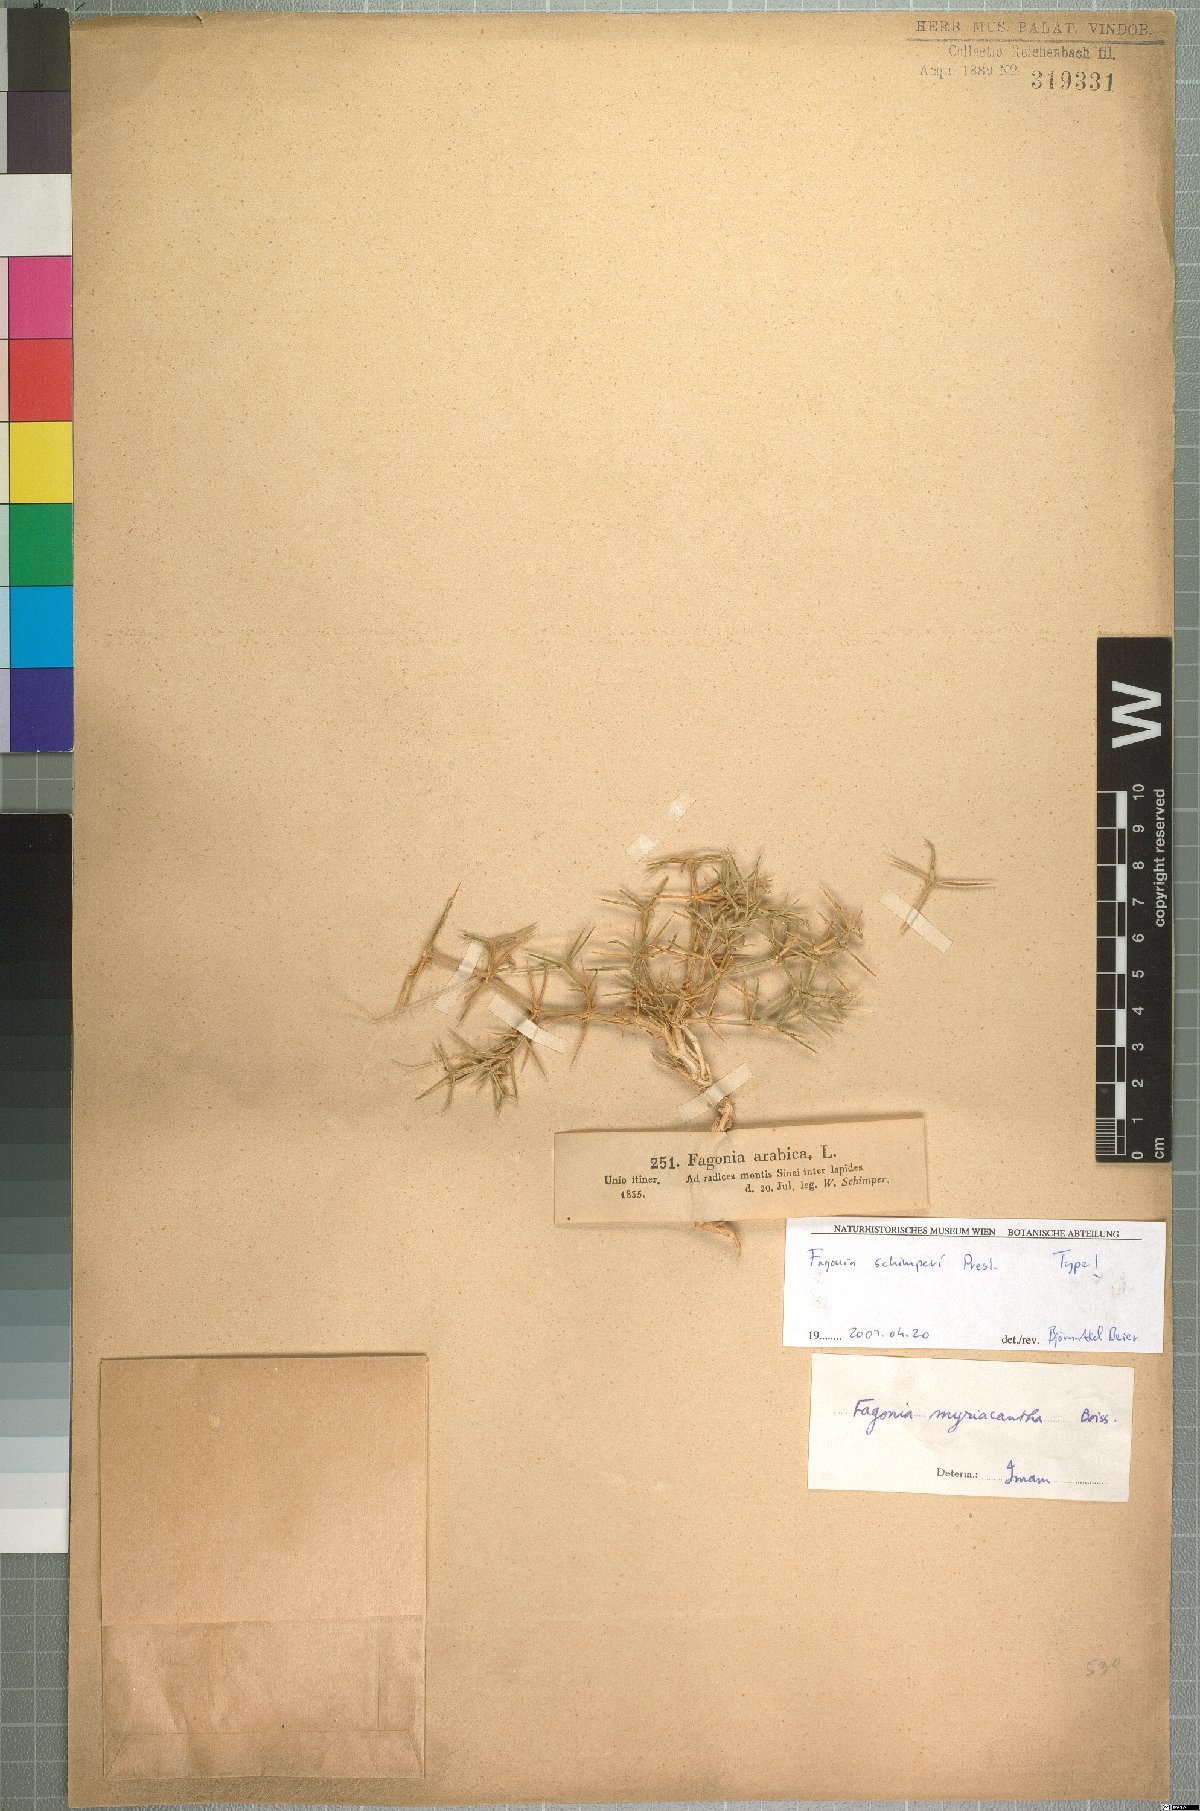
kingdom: Plantae
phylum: Tracheophyta
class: Magnoliopsida
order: Zygophyllales
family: Zygophyllaceae
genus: Fagonia
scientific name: Fagonia bruguieri
